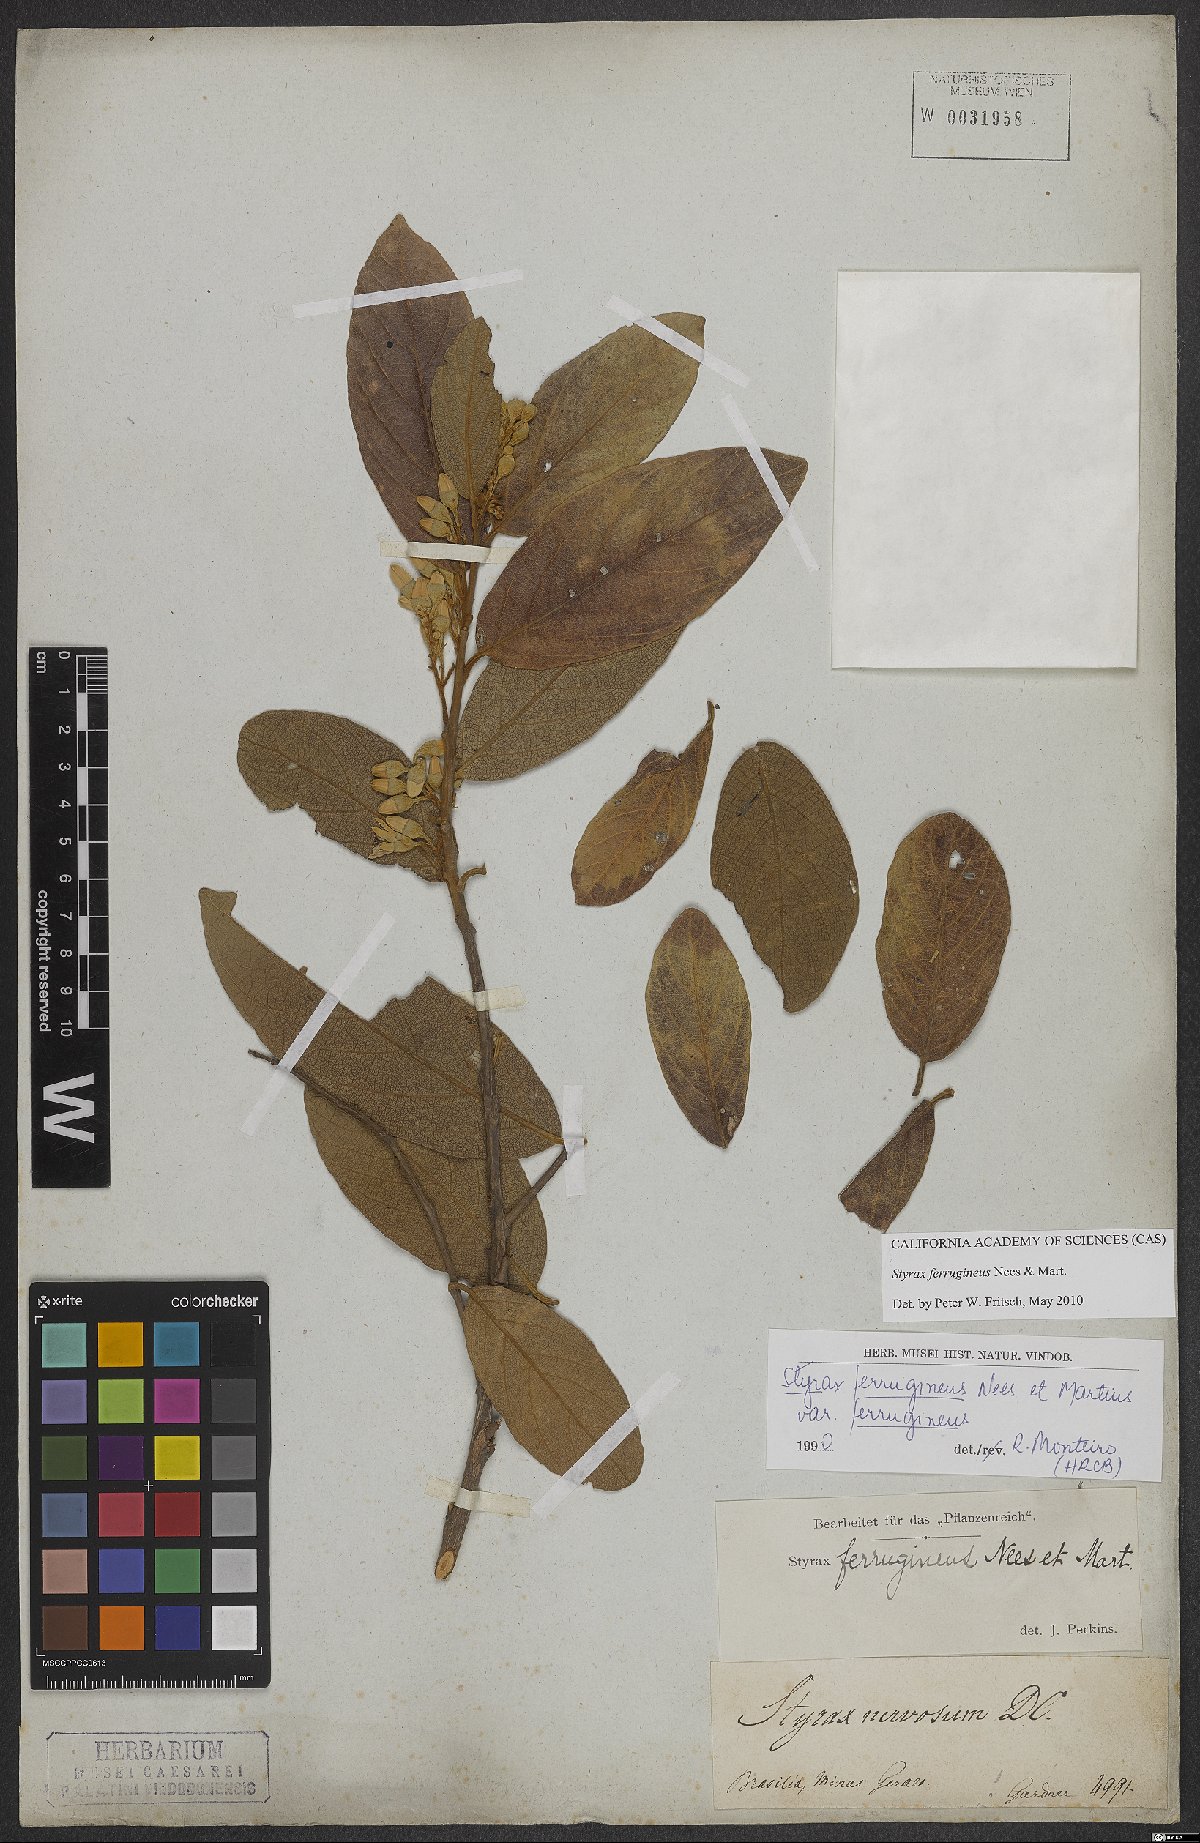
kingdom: Plantae
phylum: Tracheophyta
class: Magnoliopsida
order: Ericales
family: Styracaceae
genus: Styrax
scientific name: Styrax ferrugineus
